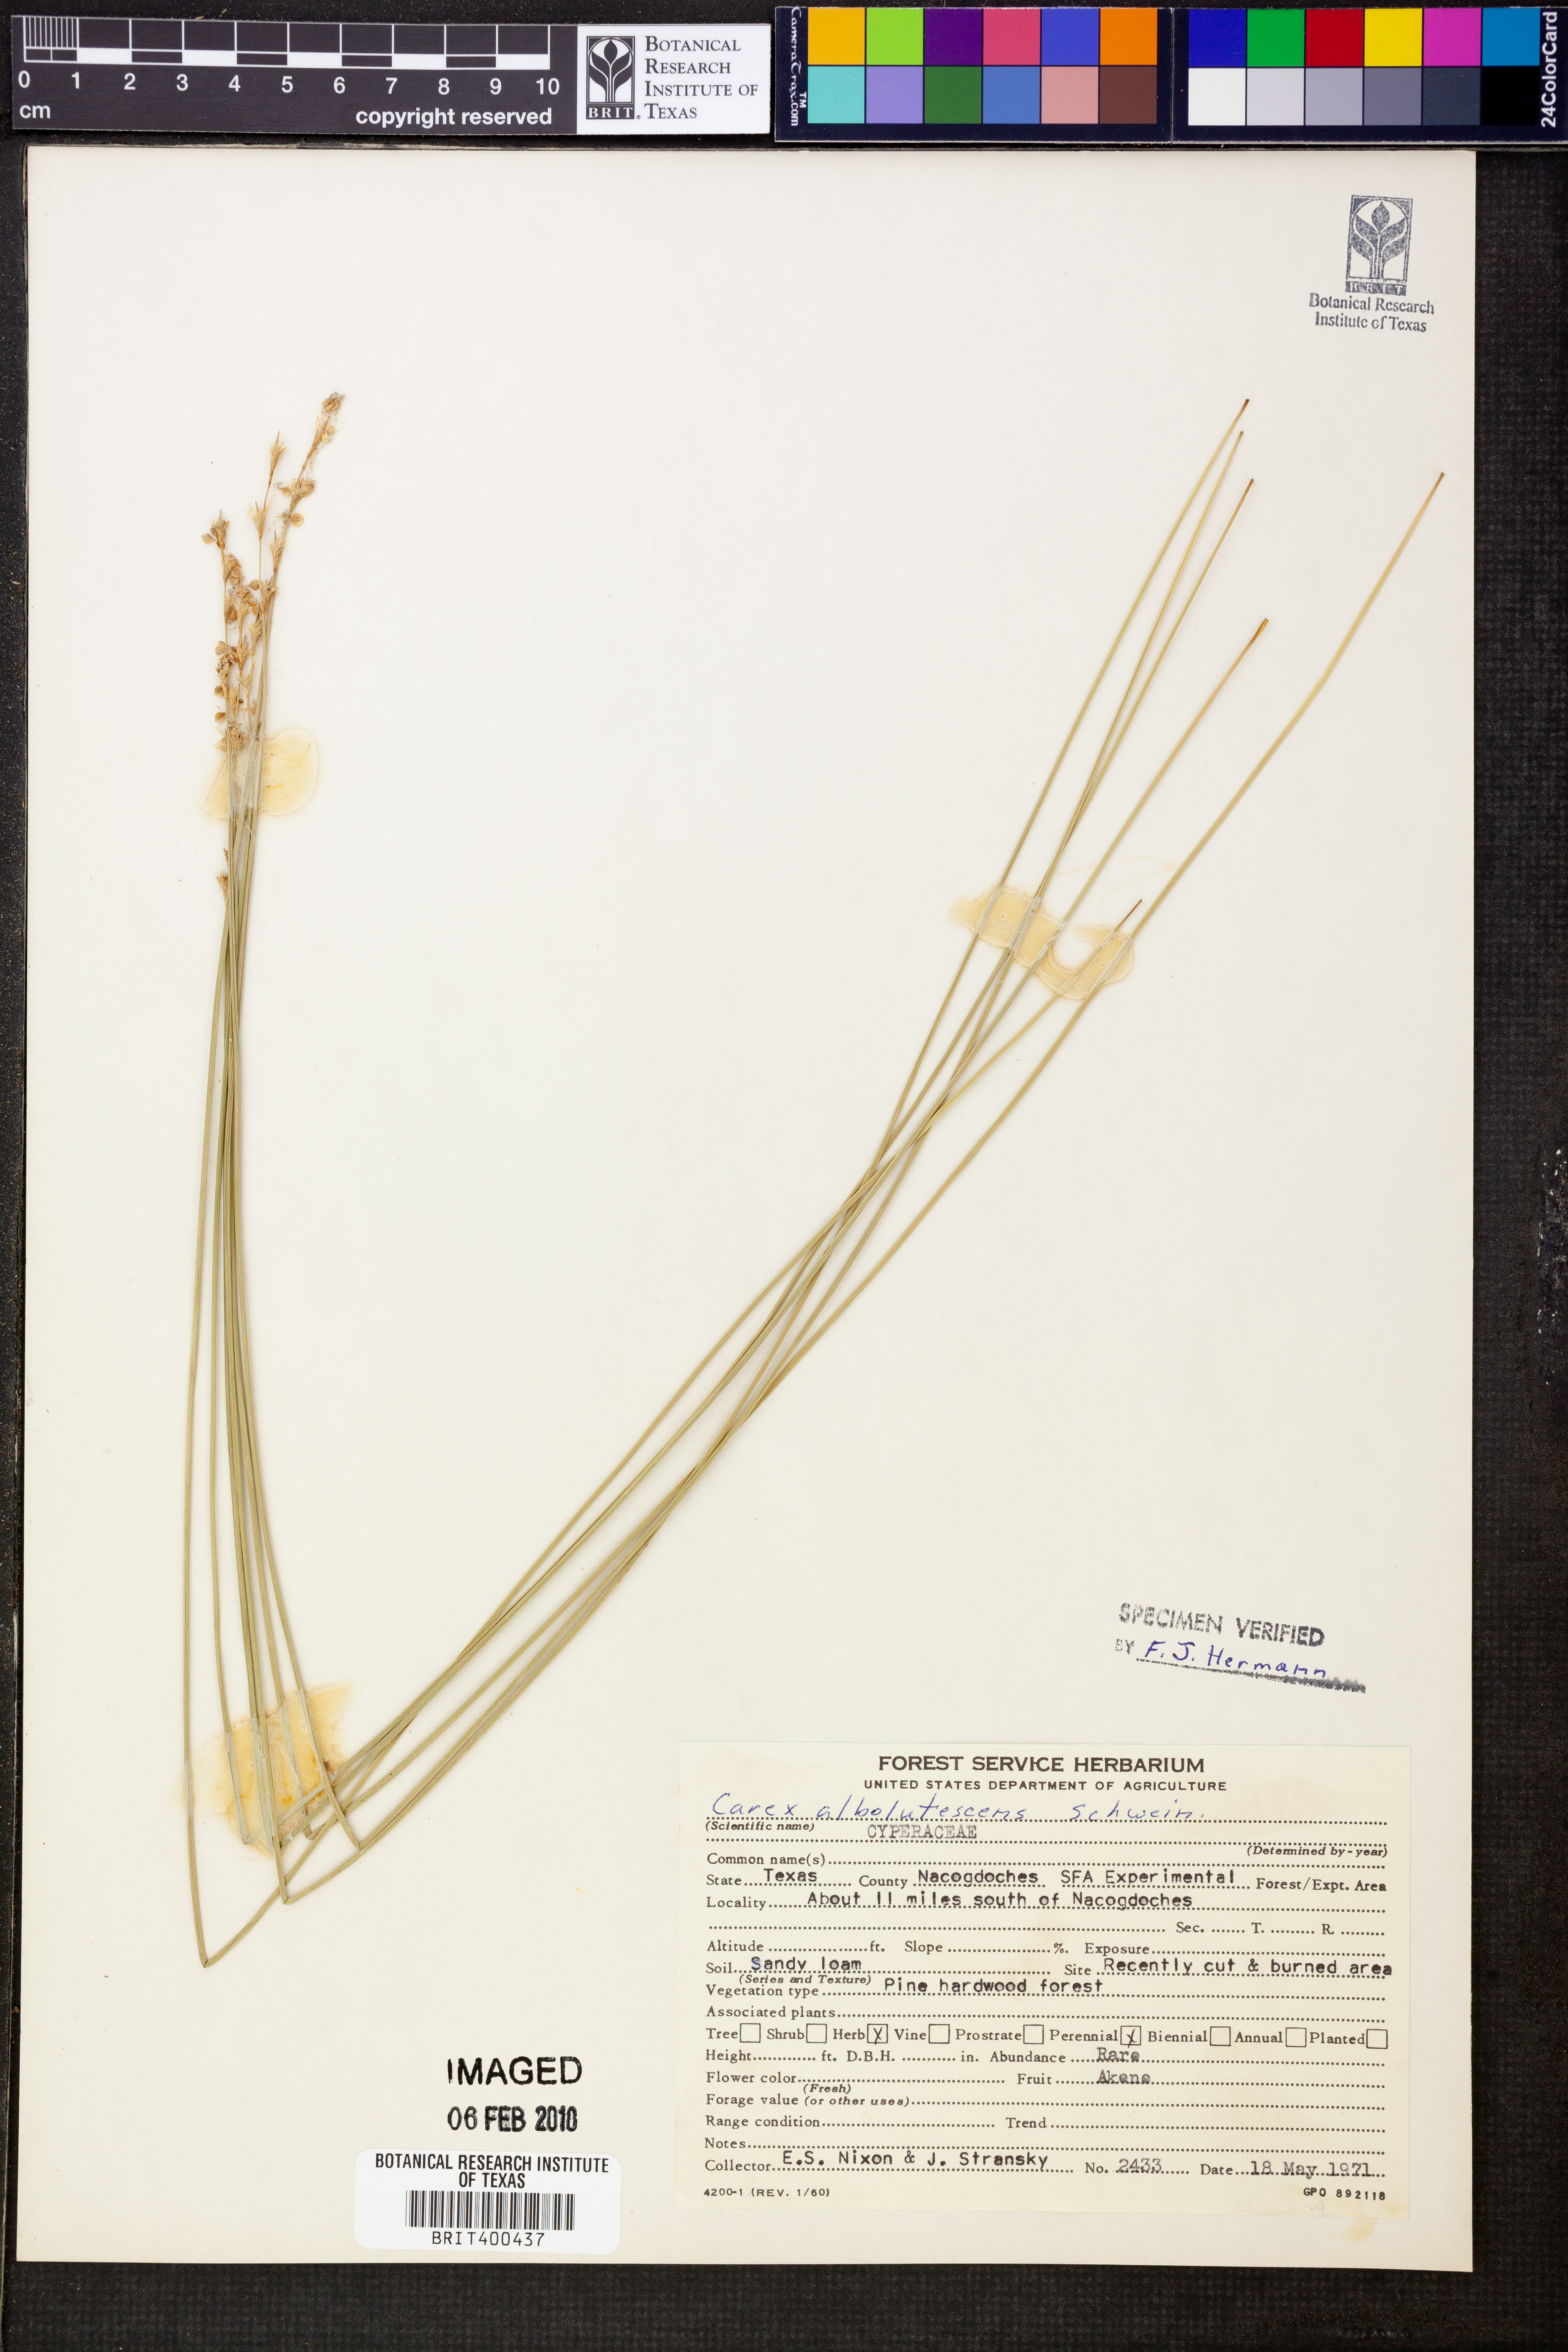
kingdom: Plantae
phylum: Tracheophyta
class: Liliopsida
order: Poales
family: Cyperaceae
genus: Carex
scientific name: Carex albolutescens
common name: Freenish white sedge
